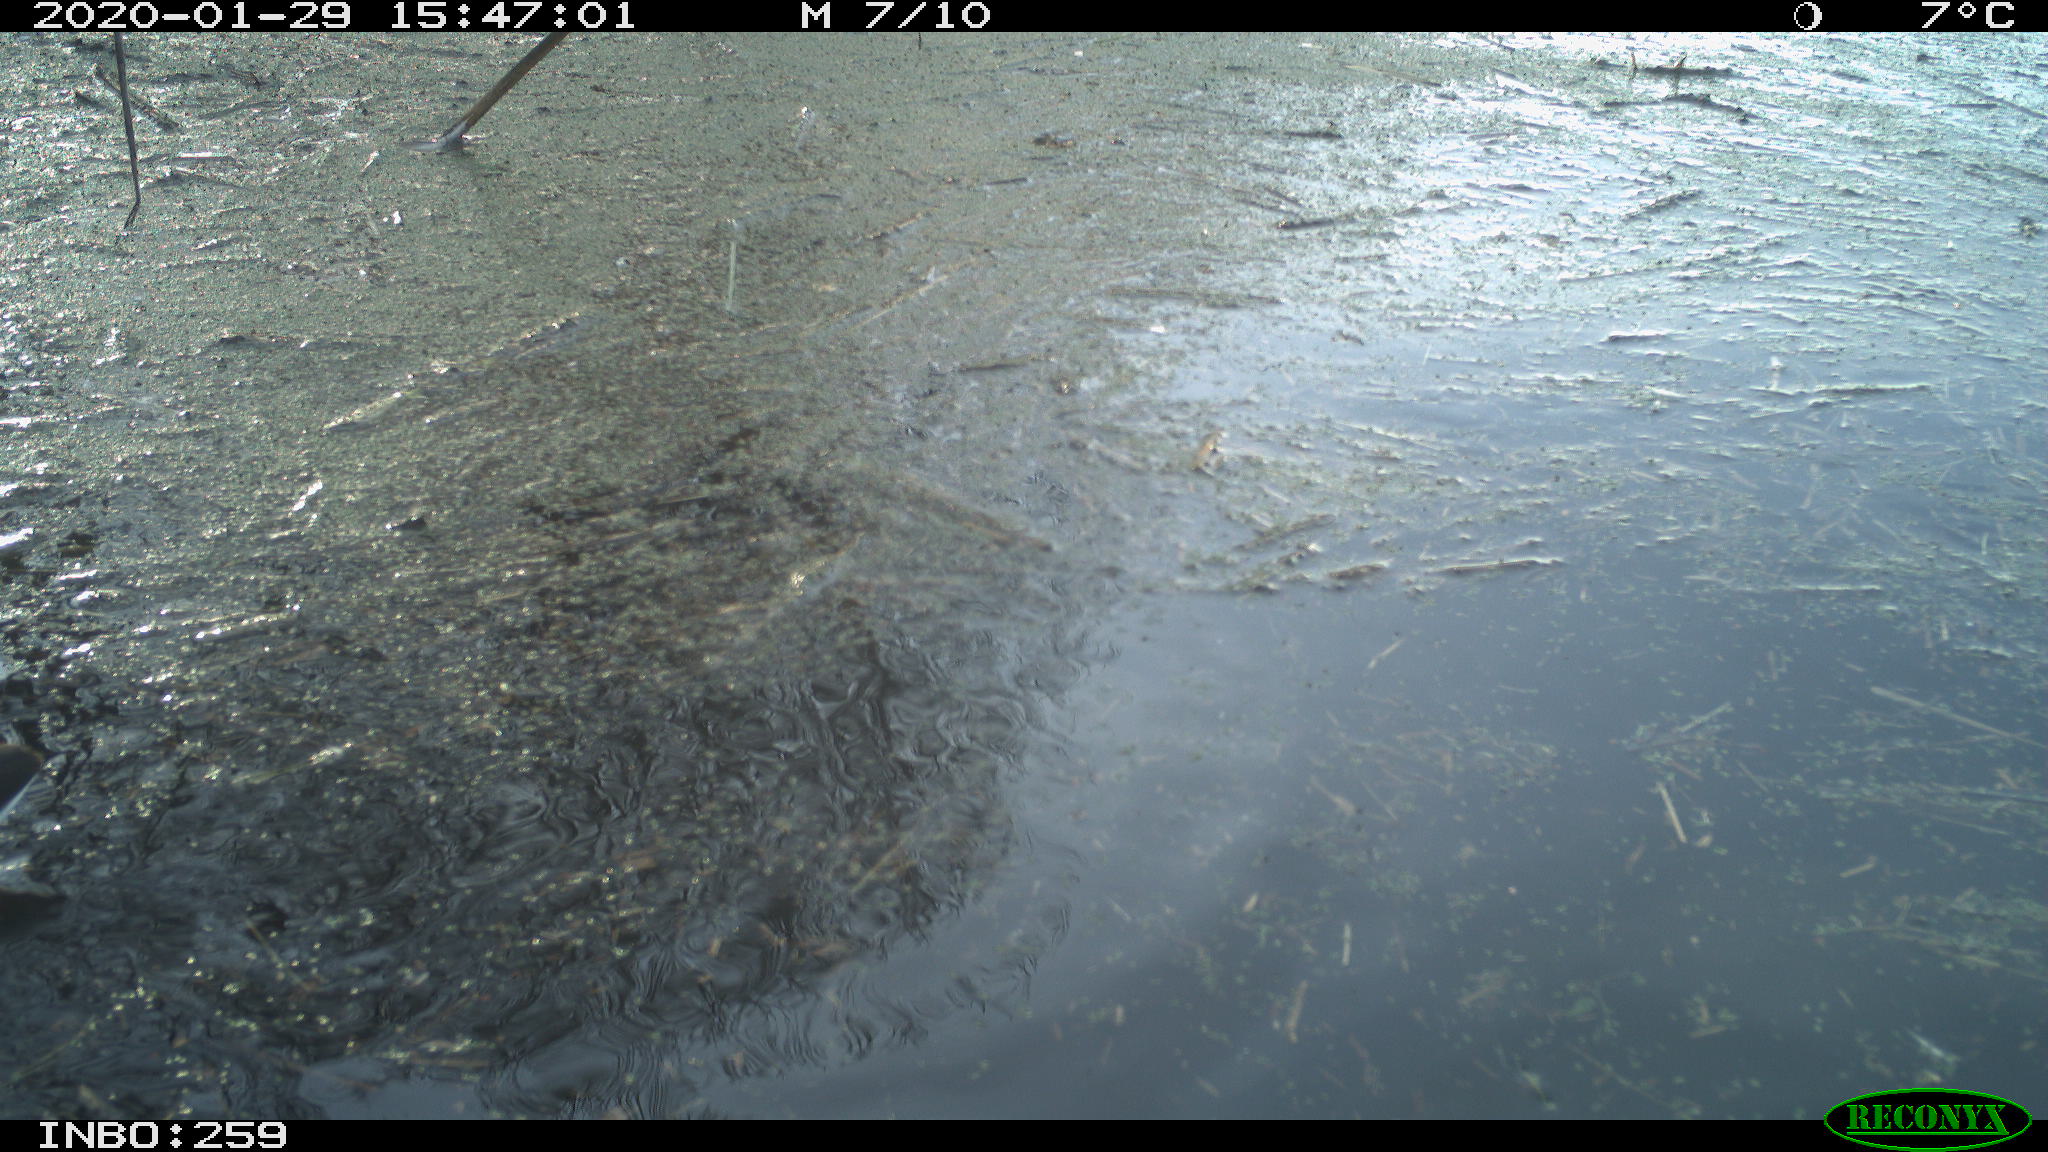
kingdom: Animalia
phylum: Chordata
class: Aves
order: Gruiformes
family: Rallidae
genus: Gallinula
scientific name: Gallinula chloropus
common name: Common moorhen
